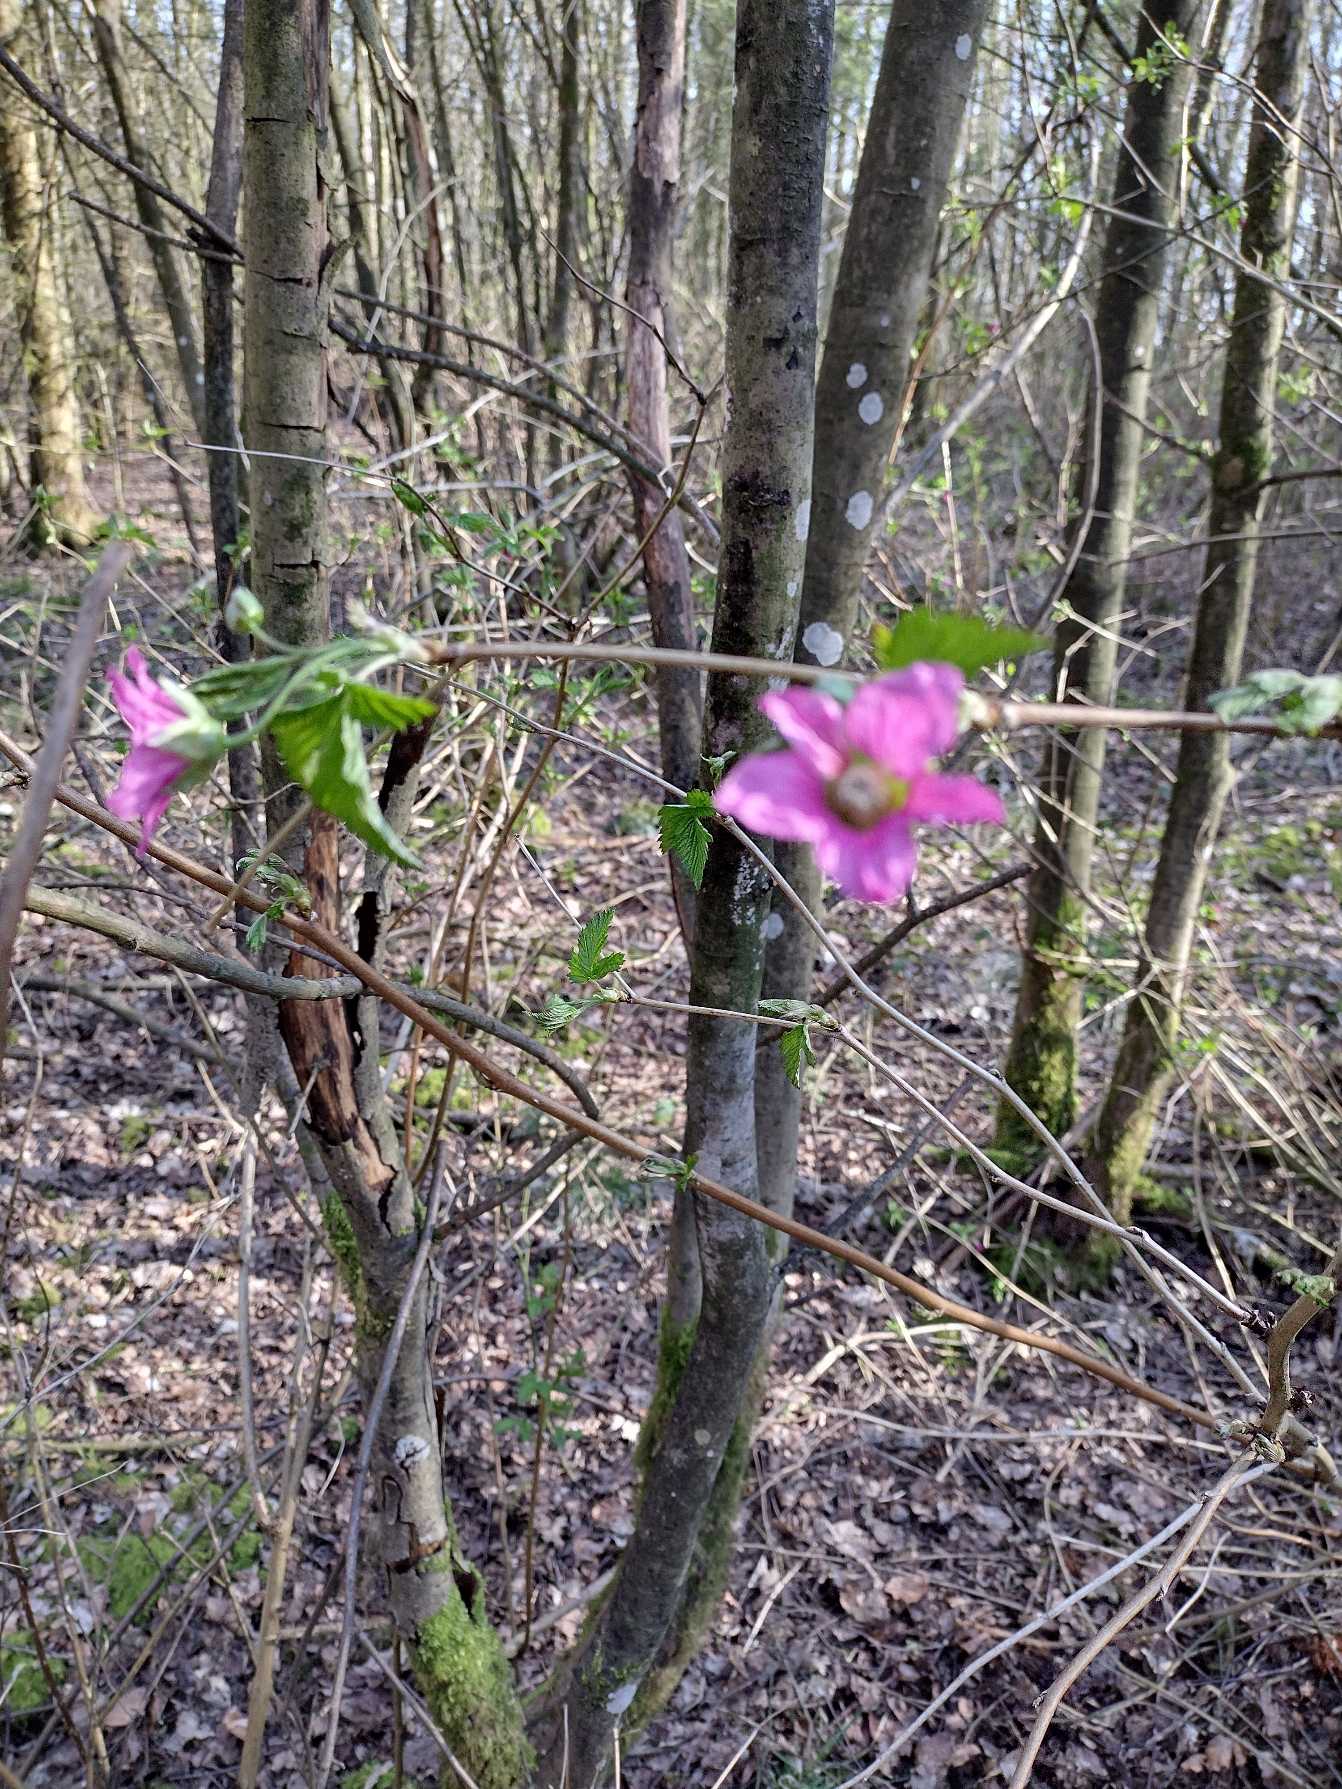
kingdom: Plantae
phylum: Tracheophyta
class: Magnoliopsida
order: Rosales
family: Rosaceae
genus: Rubus
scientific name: Rubus spectabilis
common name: Laksebær
